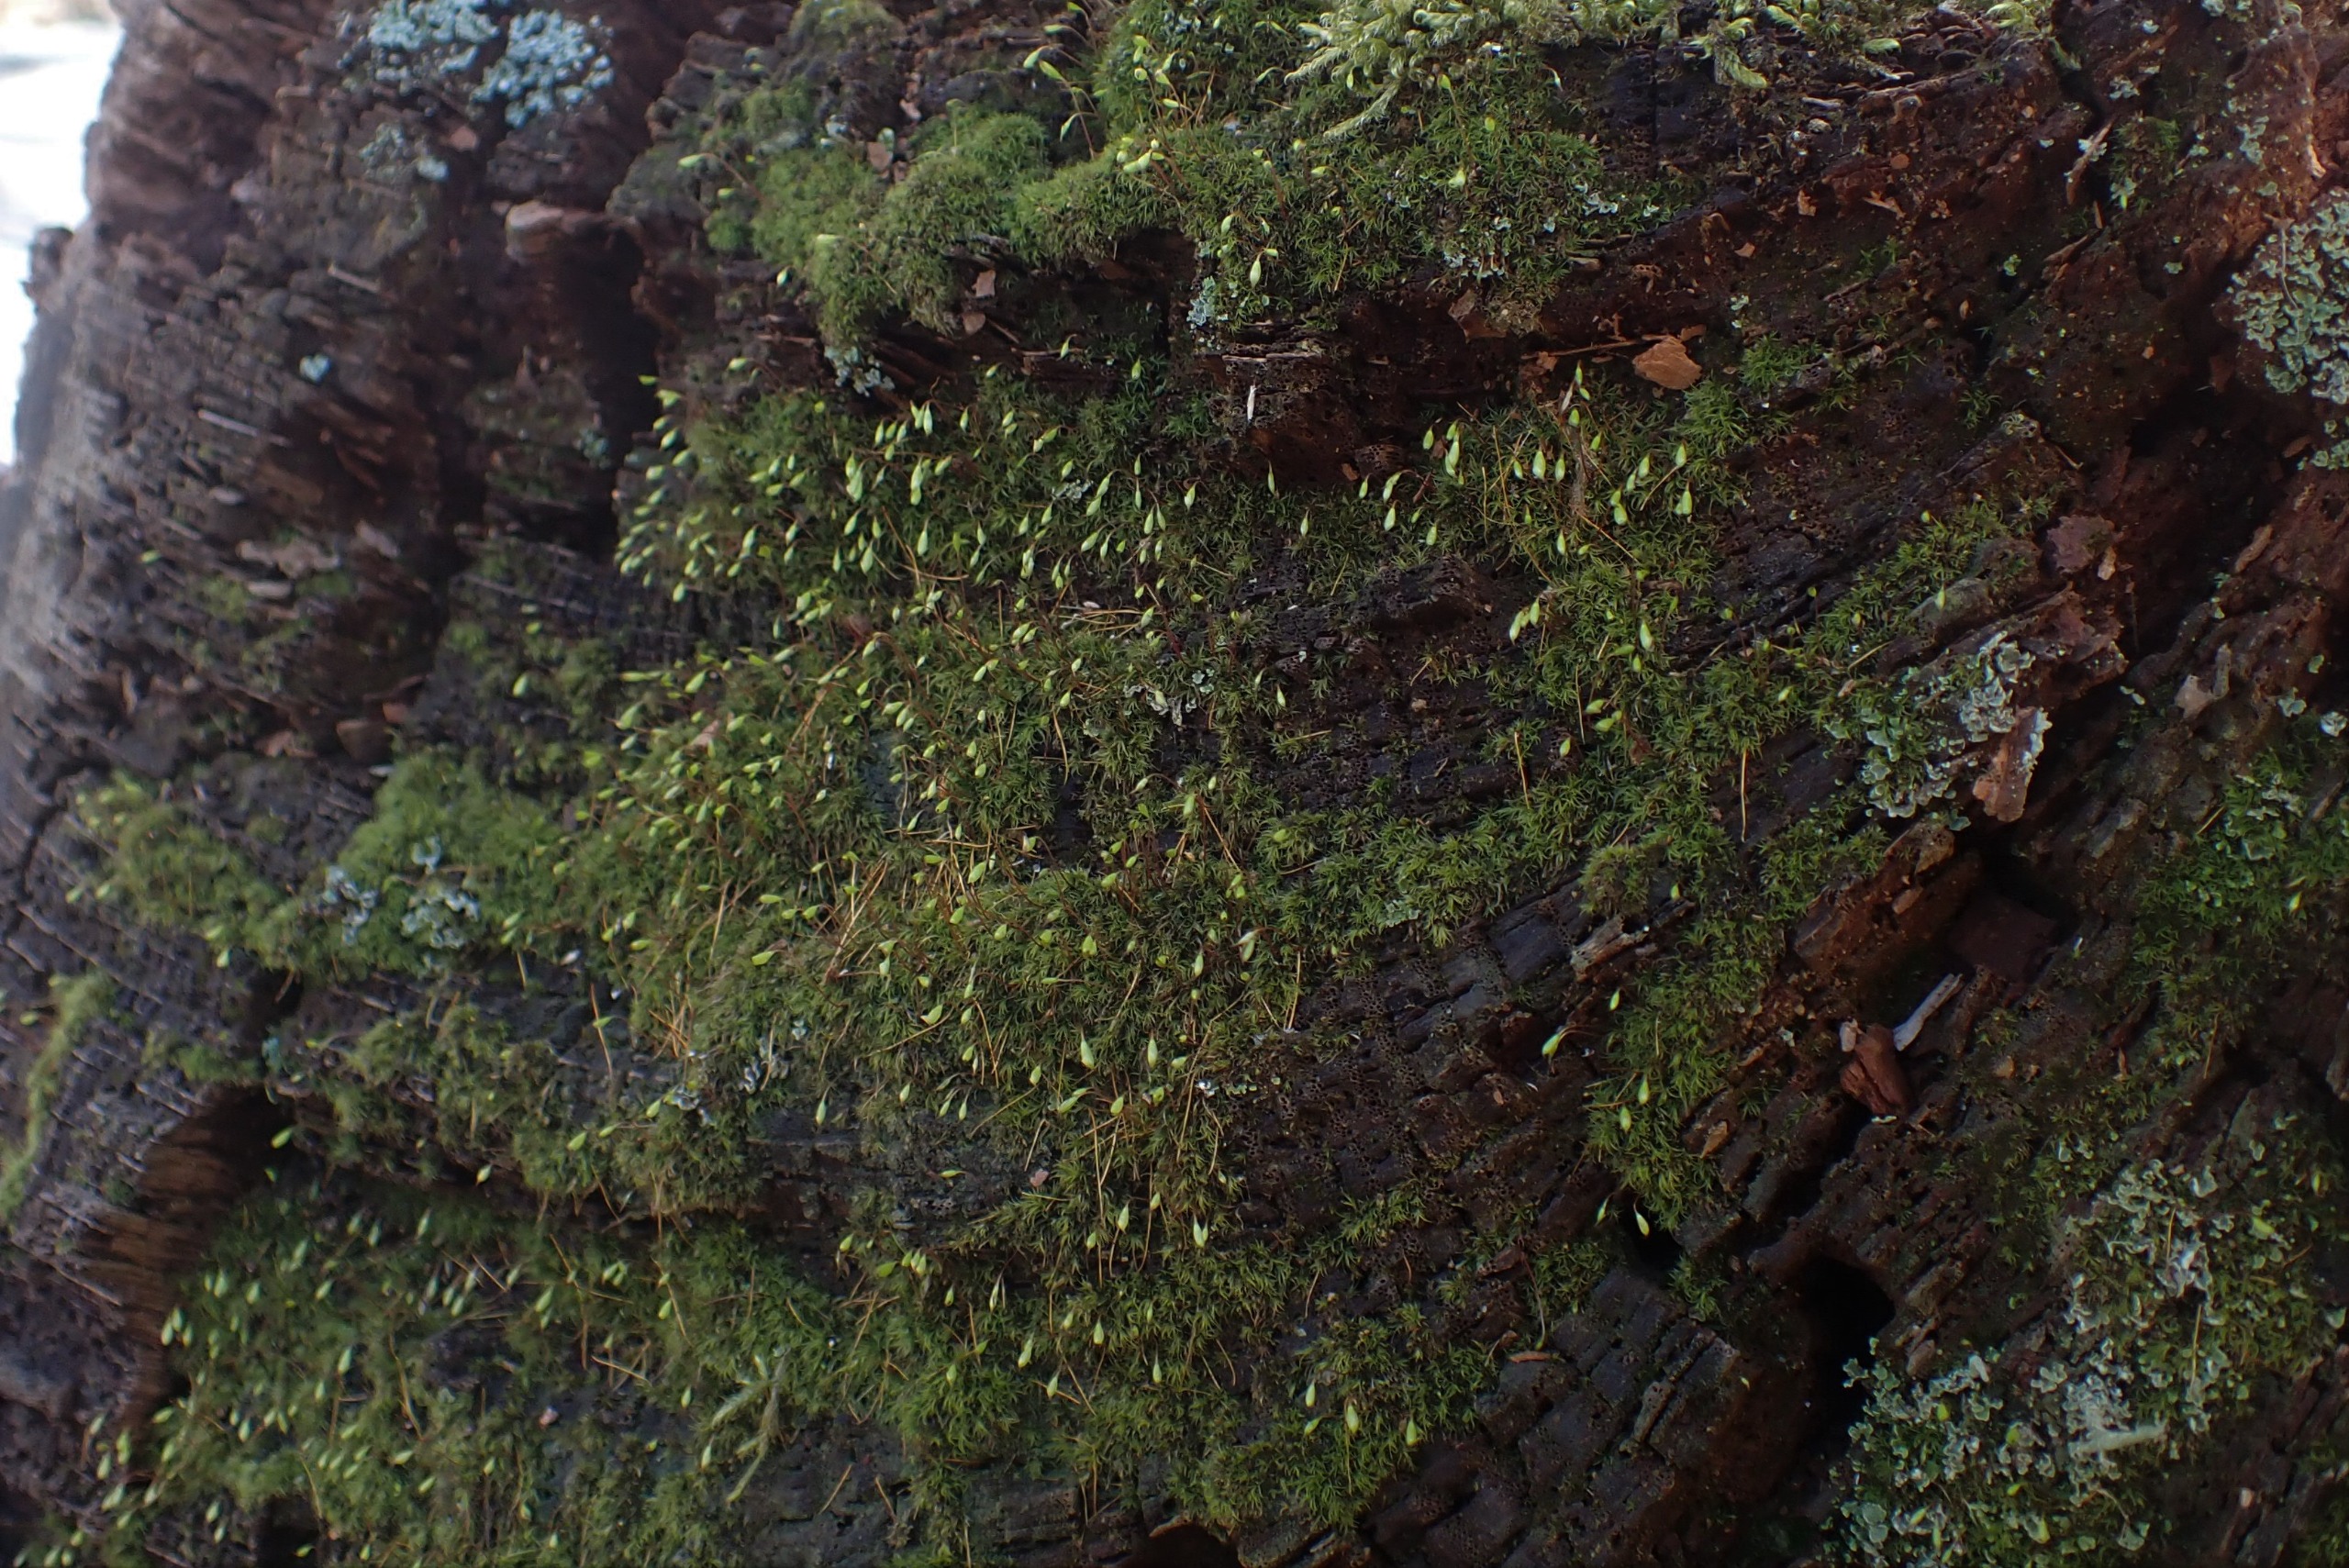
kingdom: Plantae
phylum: Bryophyta
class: Bryopsida
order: Orthodontiales
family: Orthodontiaceae
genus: Orthodontium
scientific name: Orthodontium lineare
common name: Smalbladet plysmos
